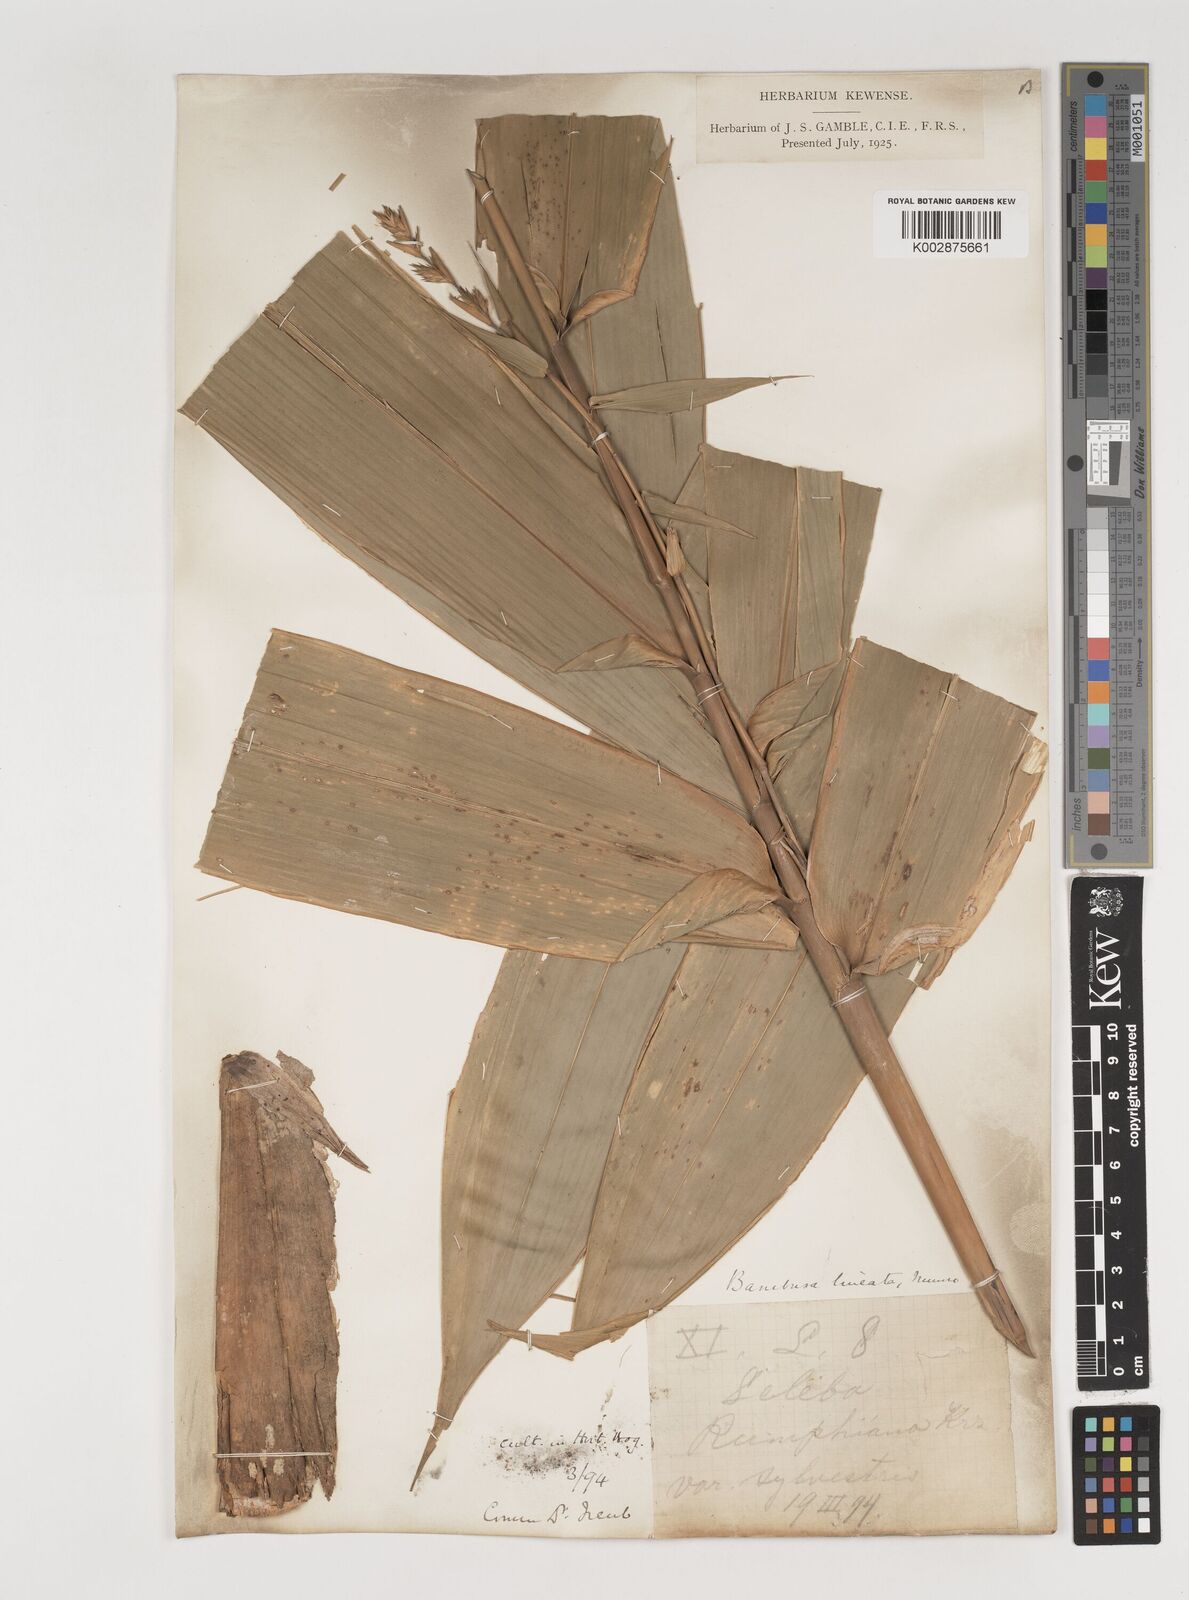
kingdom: Plantae
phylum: Tracheophyta
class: Liliopsida
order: Poales
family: Poaceae
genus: Neololeba
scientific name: Neololeba atra
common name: Cape bamboo
